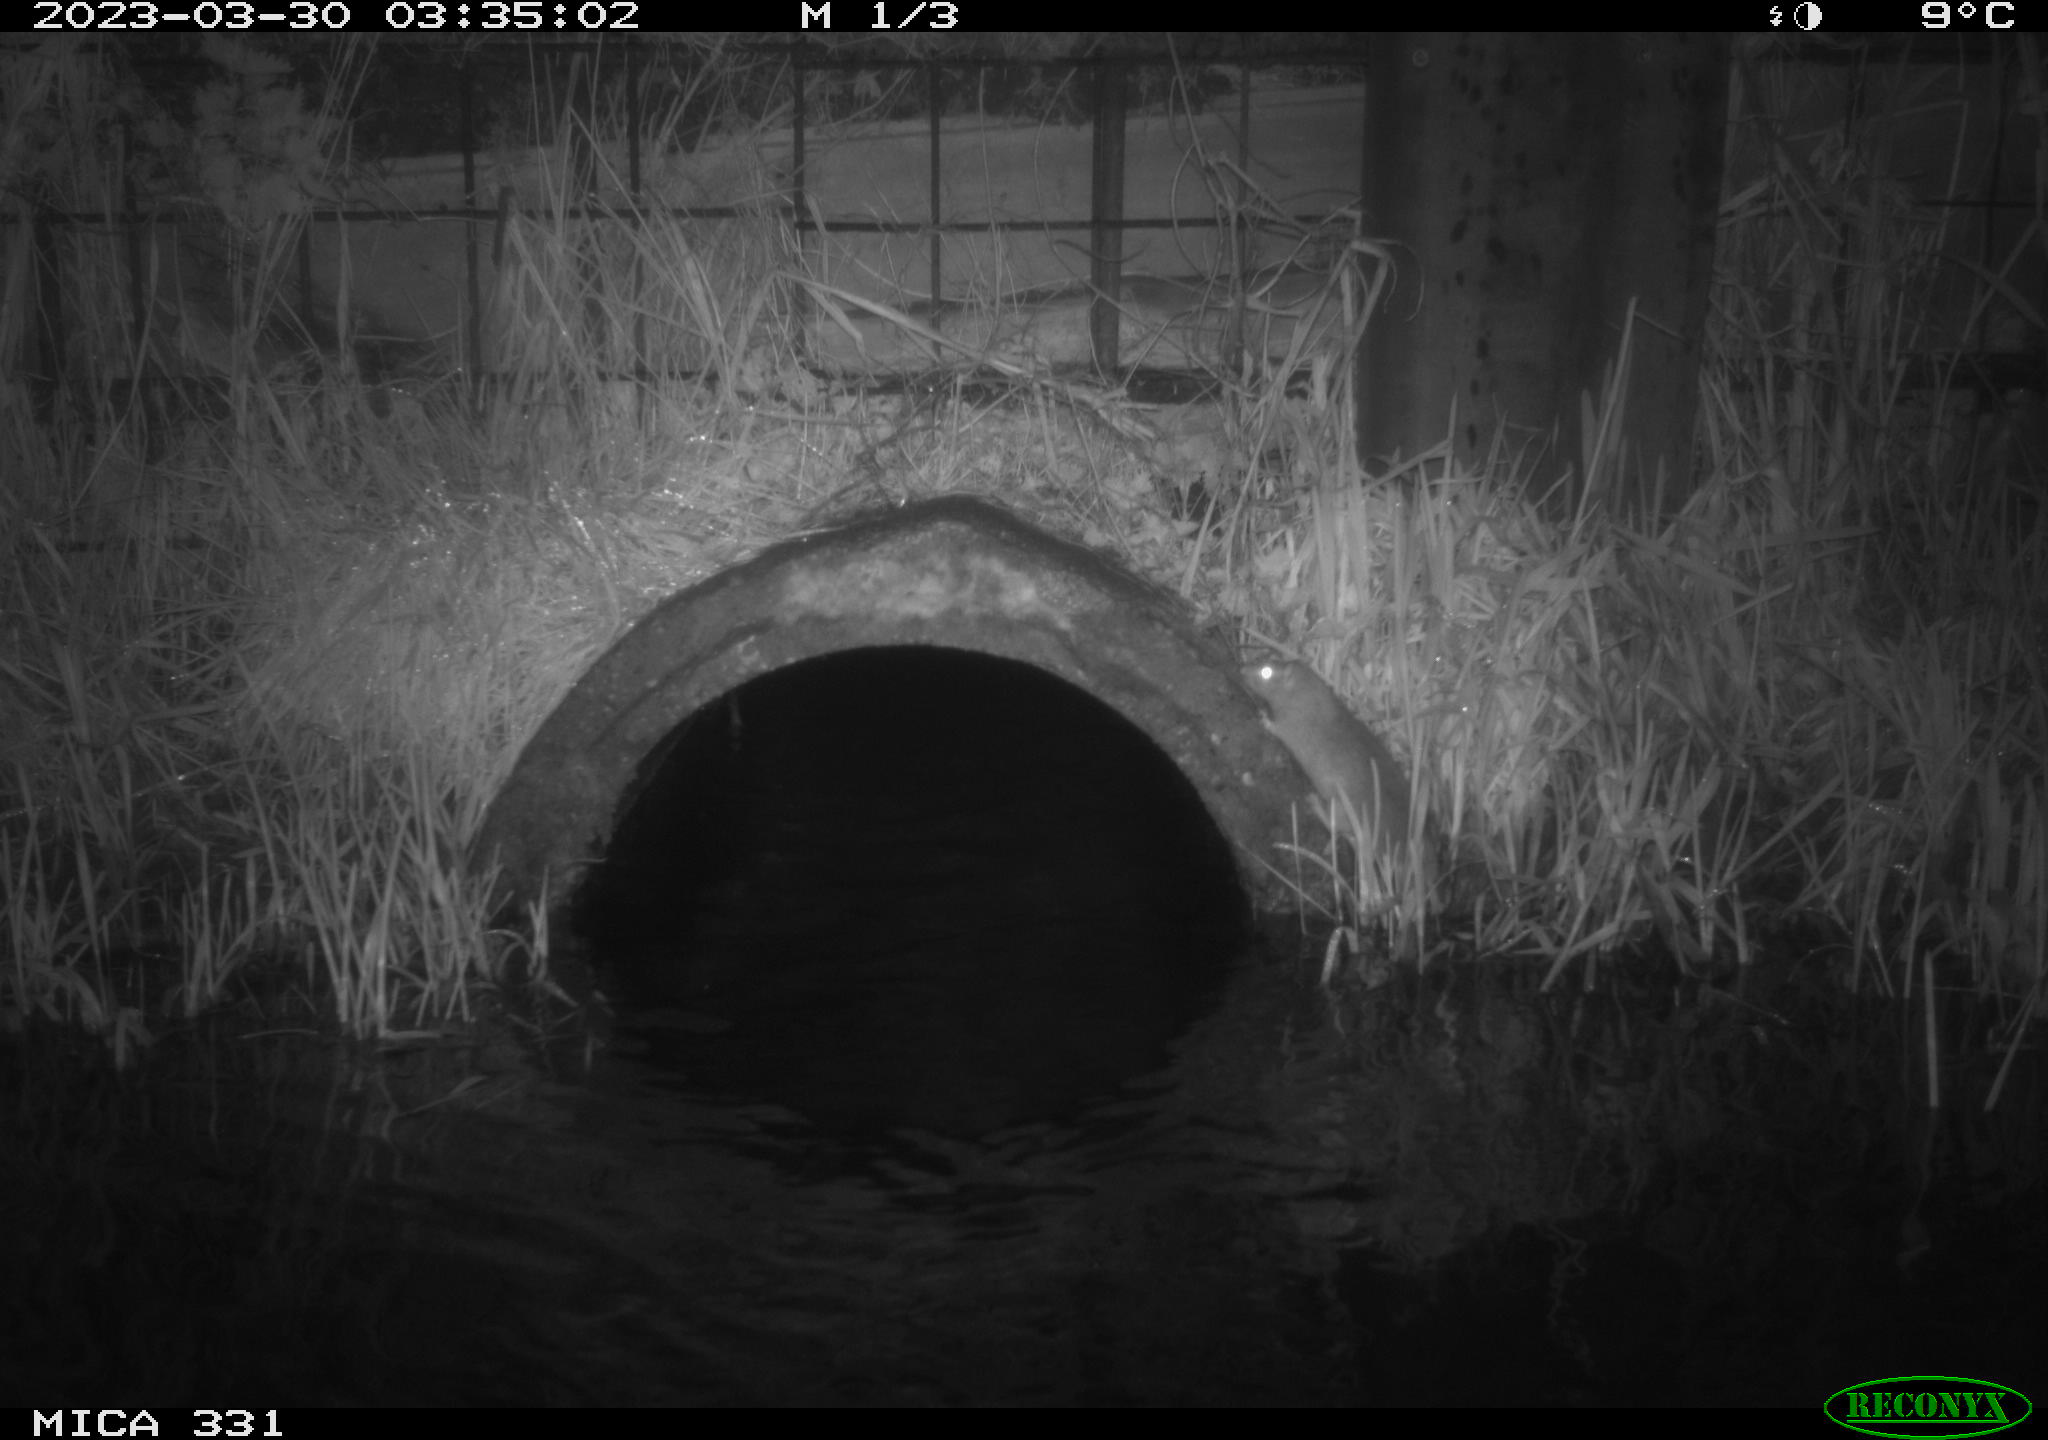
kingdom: Animalia
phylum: Chordata
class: Mammalia
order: Rodentia
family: Muridae
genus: Rattus
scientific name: Rattus norvegicus
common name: Brown rat
